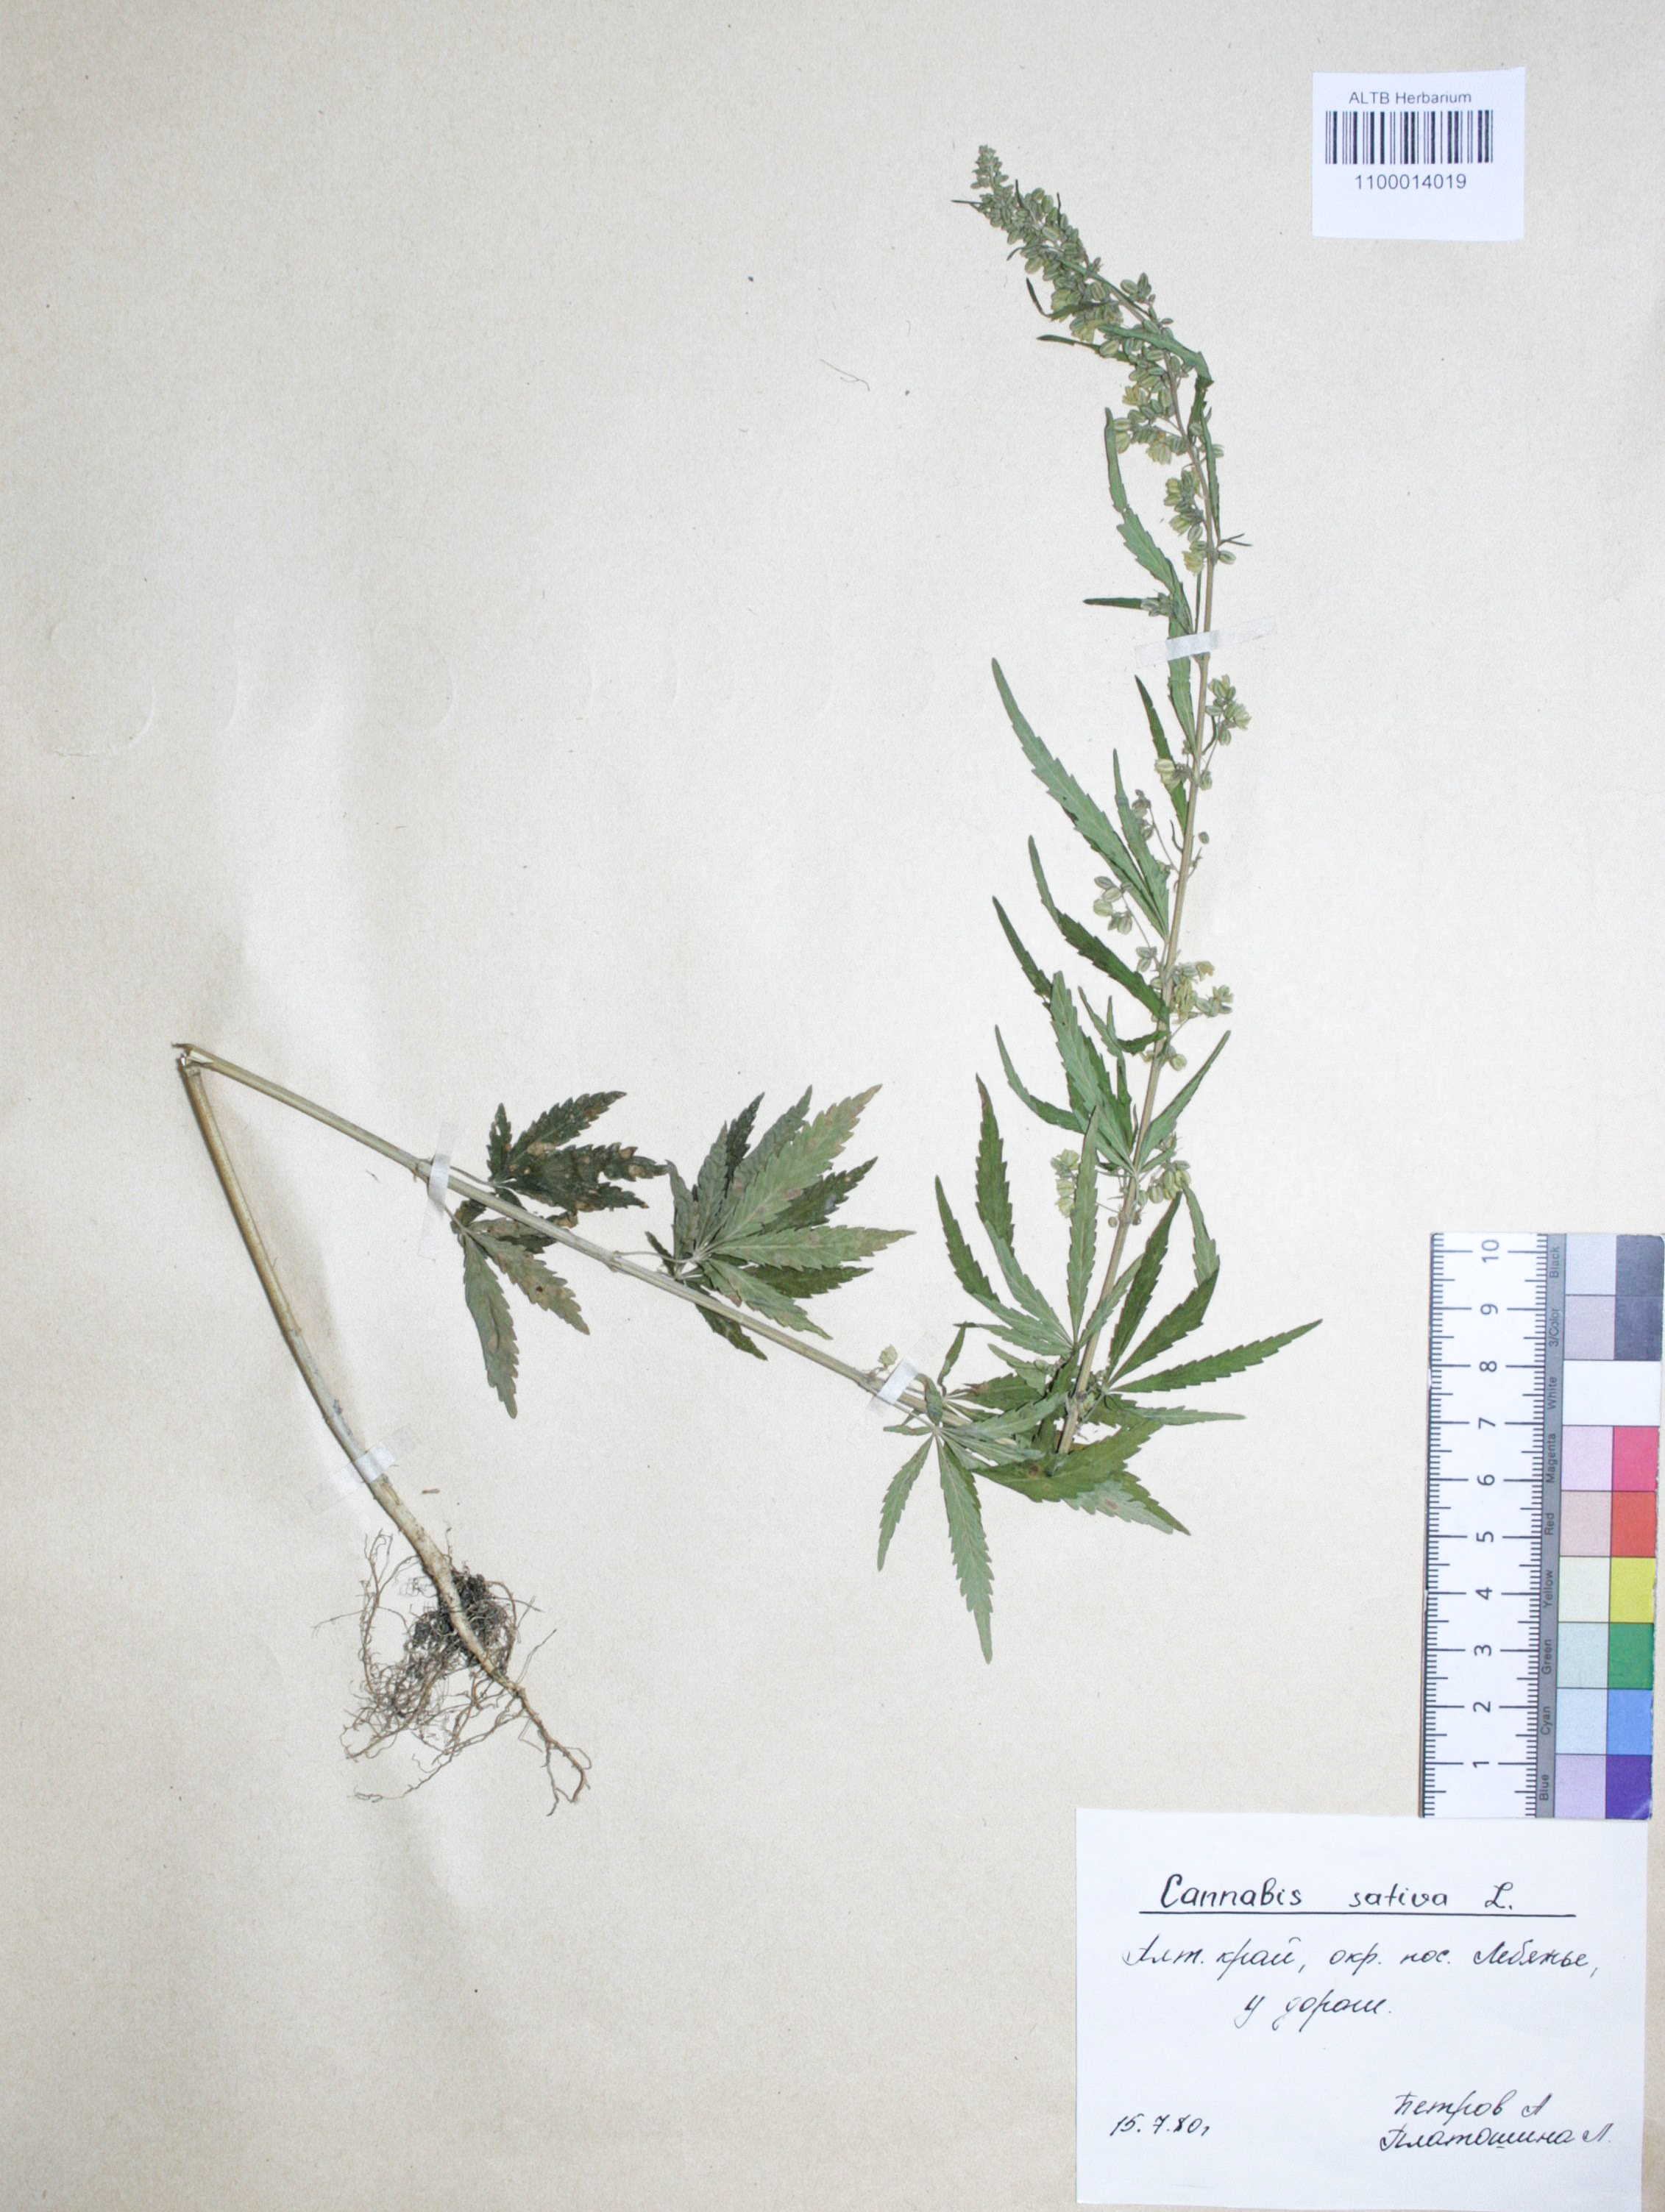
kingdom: Plantae
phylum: Tracheophyta
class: Magnoliopsida
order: Rosales
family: Cannabaceae
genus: Cannabis
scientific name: Cannabis sativa
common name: Hemp
